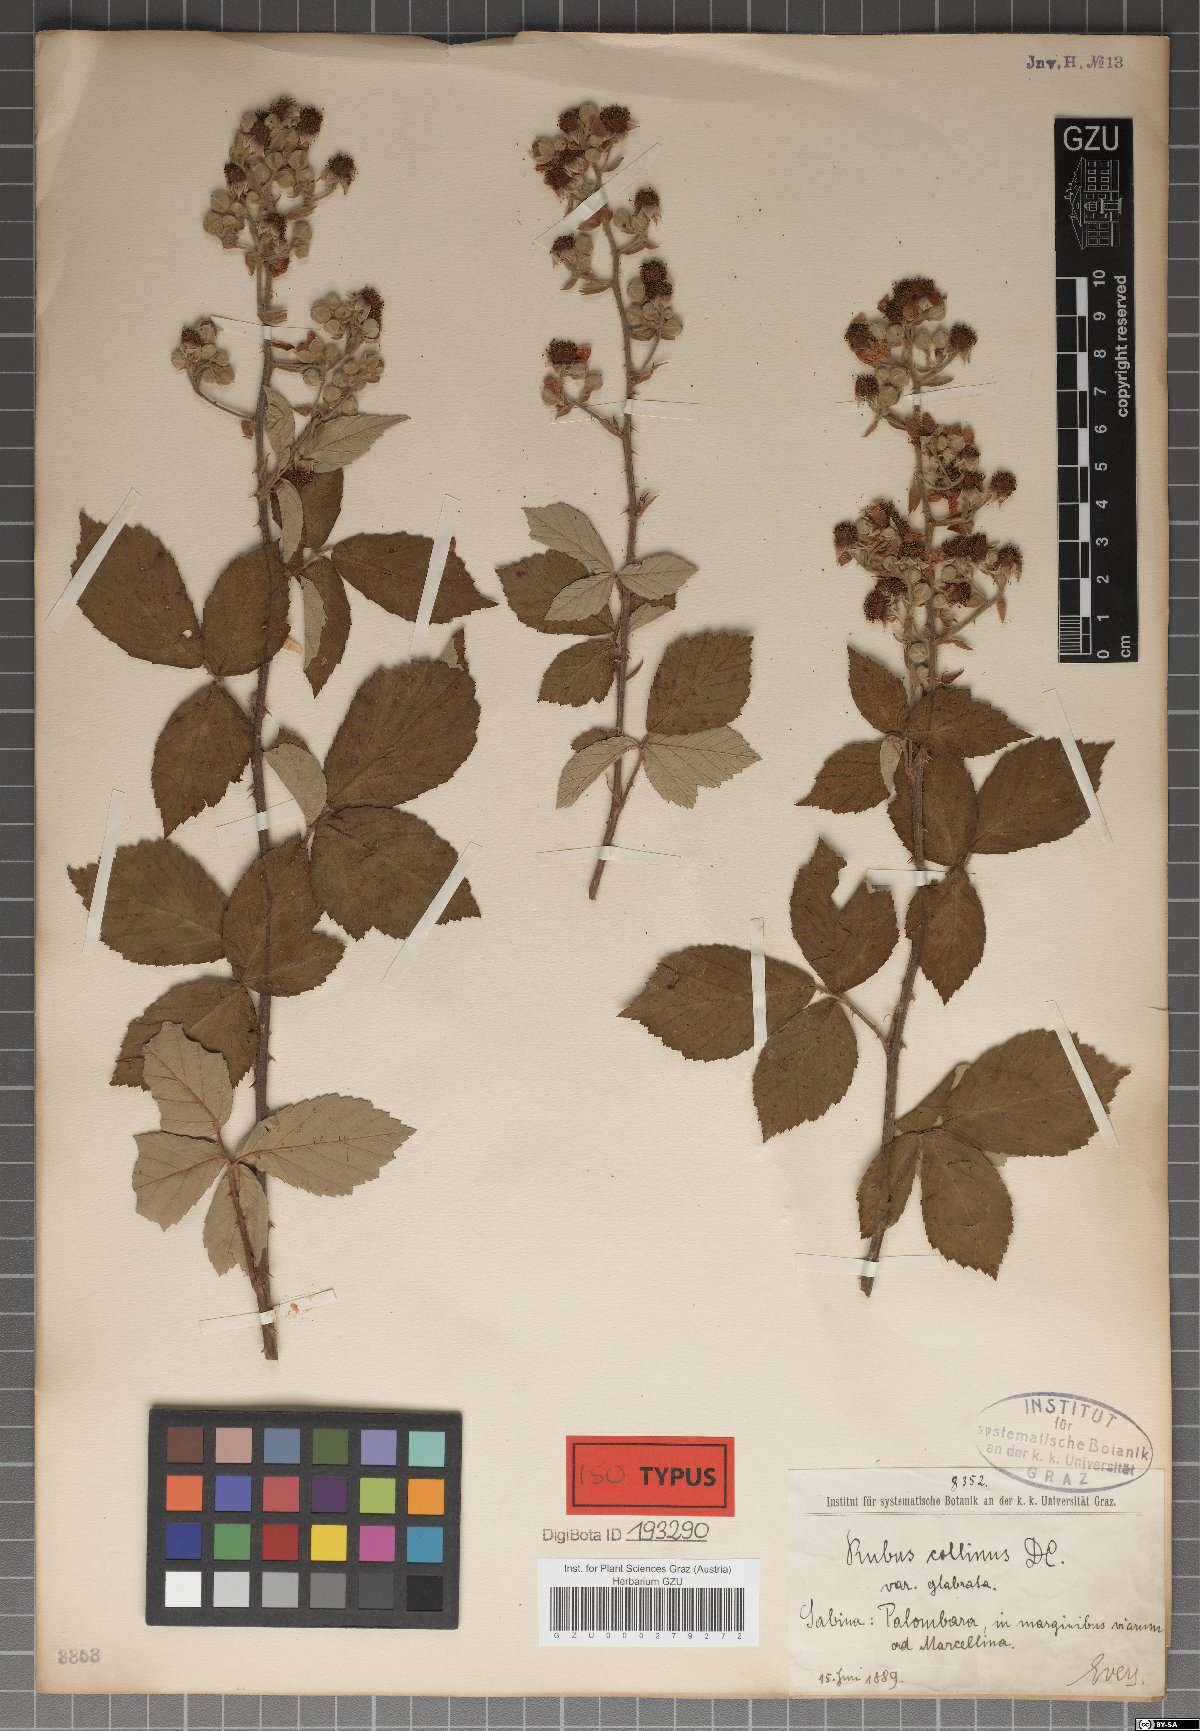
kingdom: Plantae
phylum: Tracheophyta
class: Magnoliopsida
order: Rosales
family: Rosaceae
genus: Rubus
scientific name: Rubus collinus
